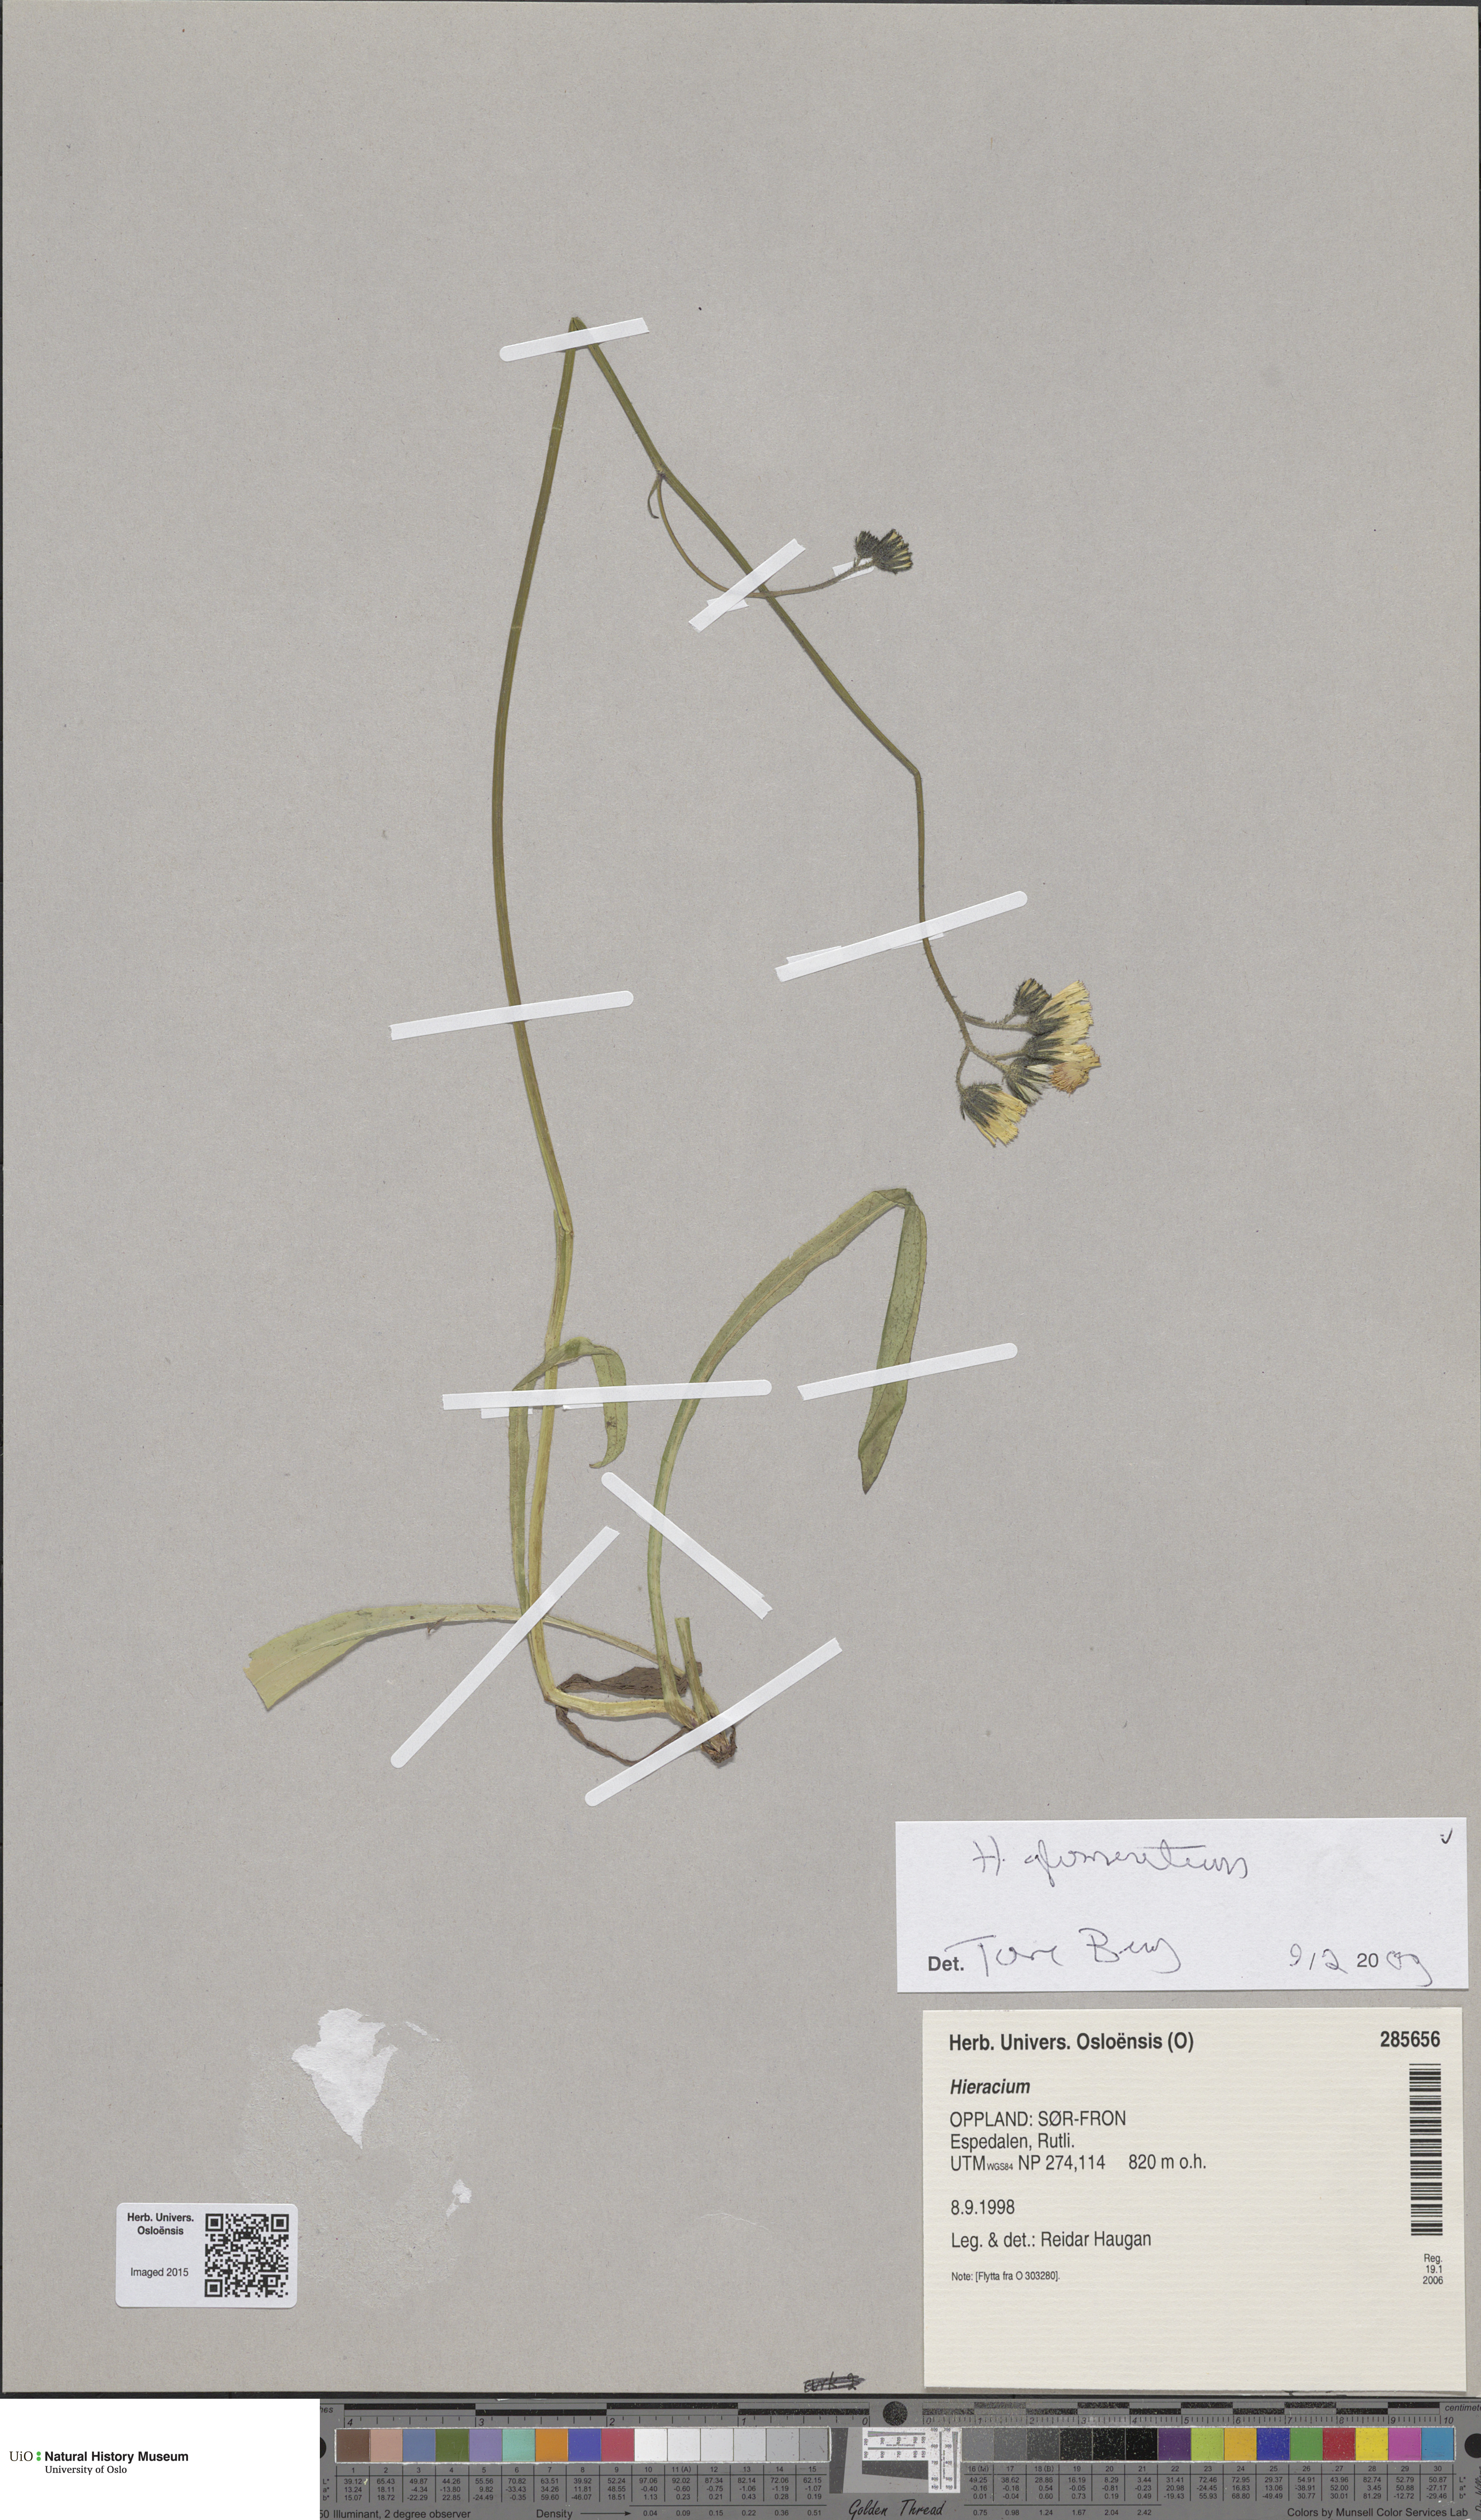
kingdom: Plantae
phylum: Tracheophyta
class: Magnoliopsida
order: Asterales
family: Asteraceae
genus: Pilosella
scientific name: Pilosella glomerata
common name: Queen devil hawkweed
